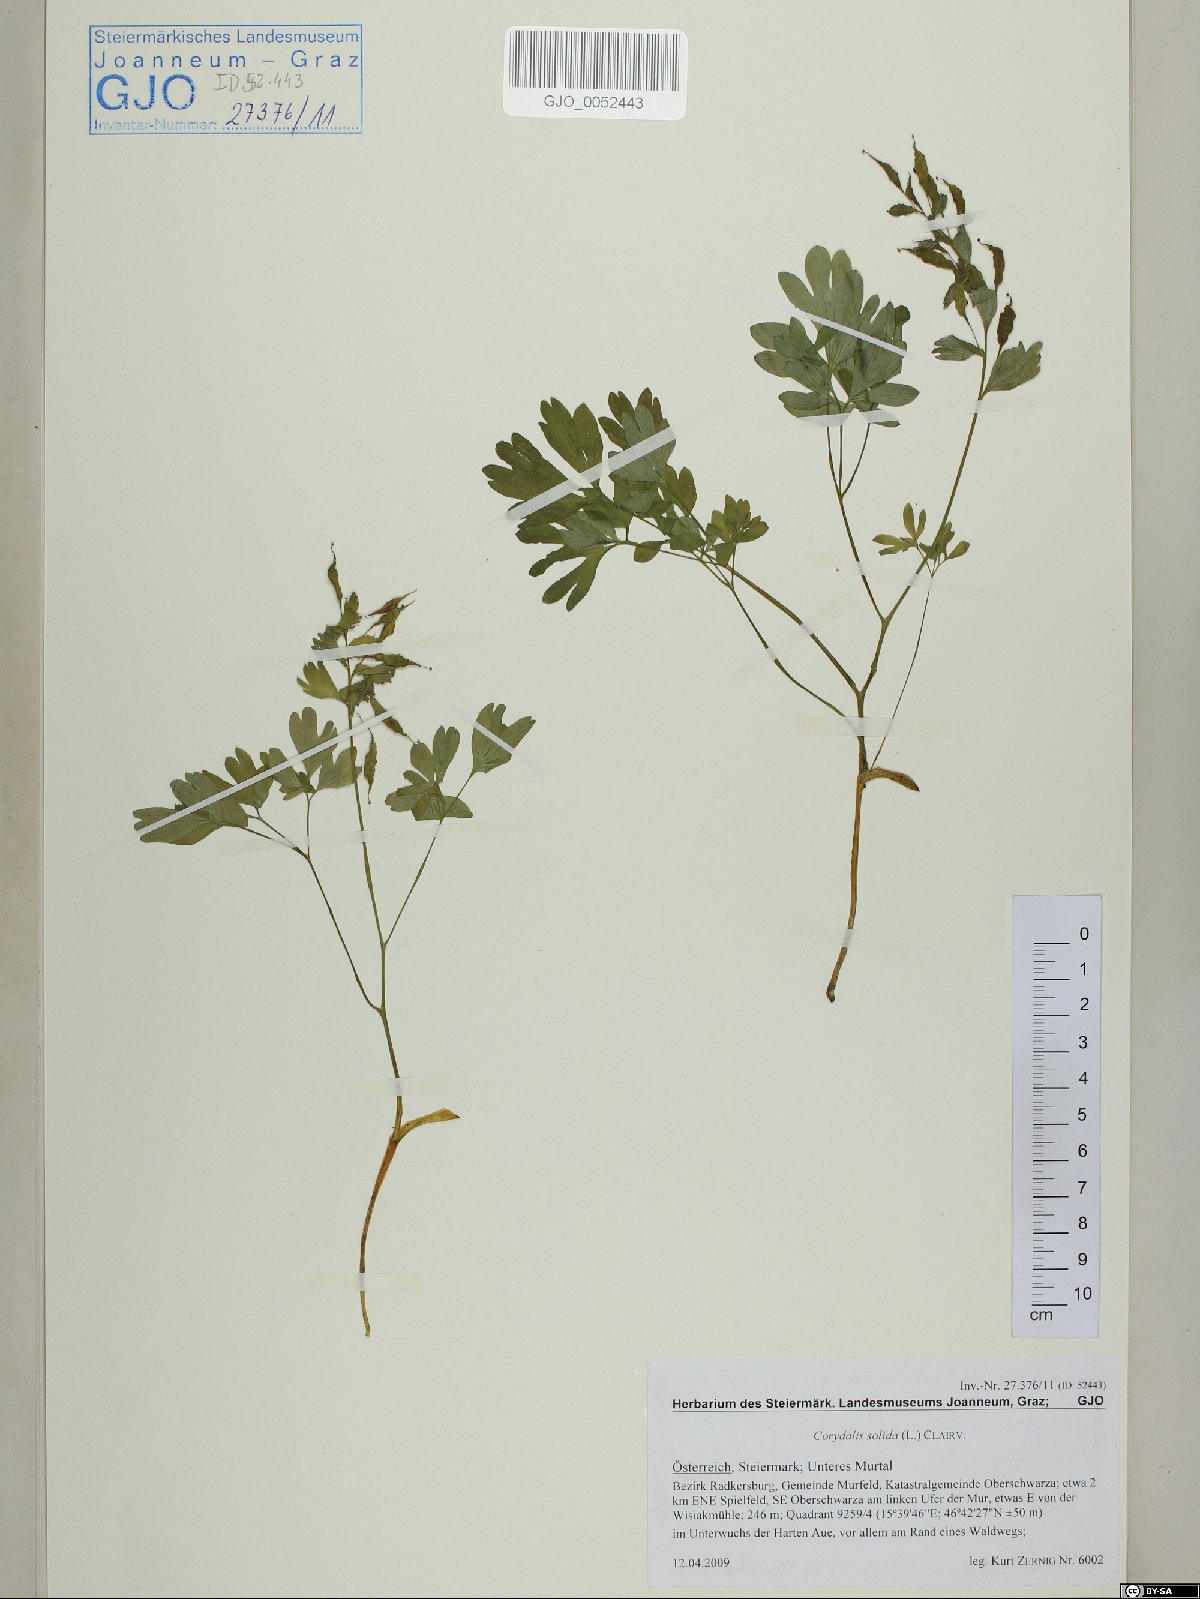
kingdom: Plantae
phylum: Tracheophyta
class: Magnoliopsida
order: Ranunculales
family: Papaveraceae
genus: Corydalis
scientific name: Corydalis solida
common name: Bird-in-a-bush
